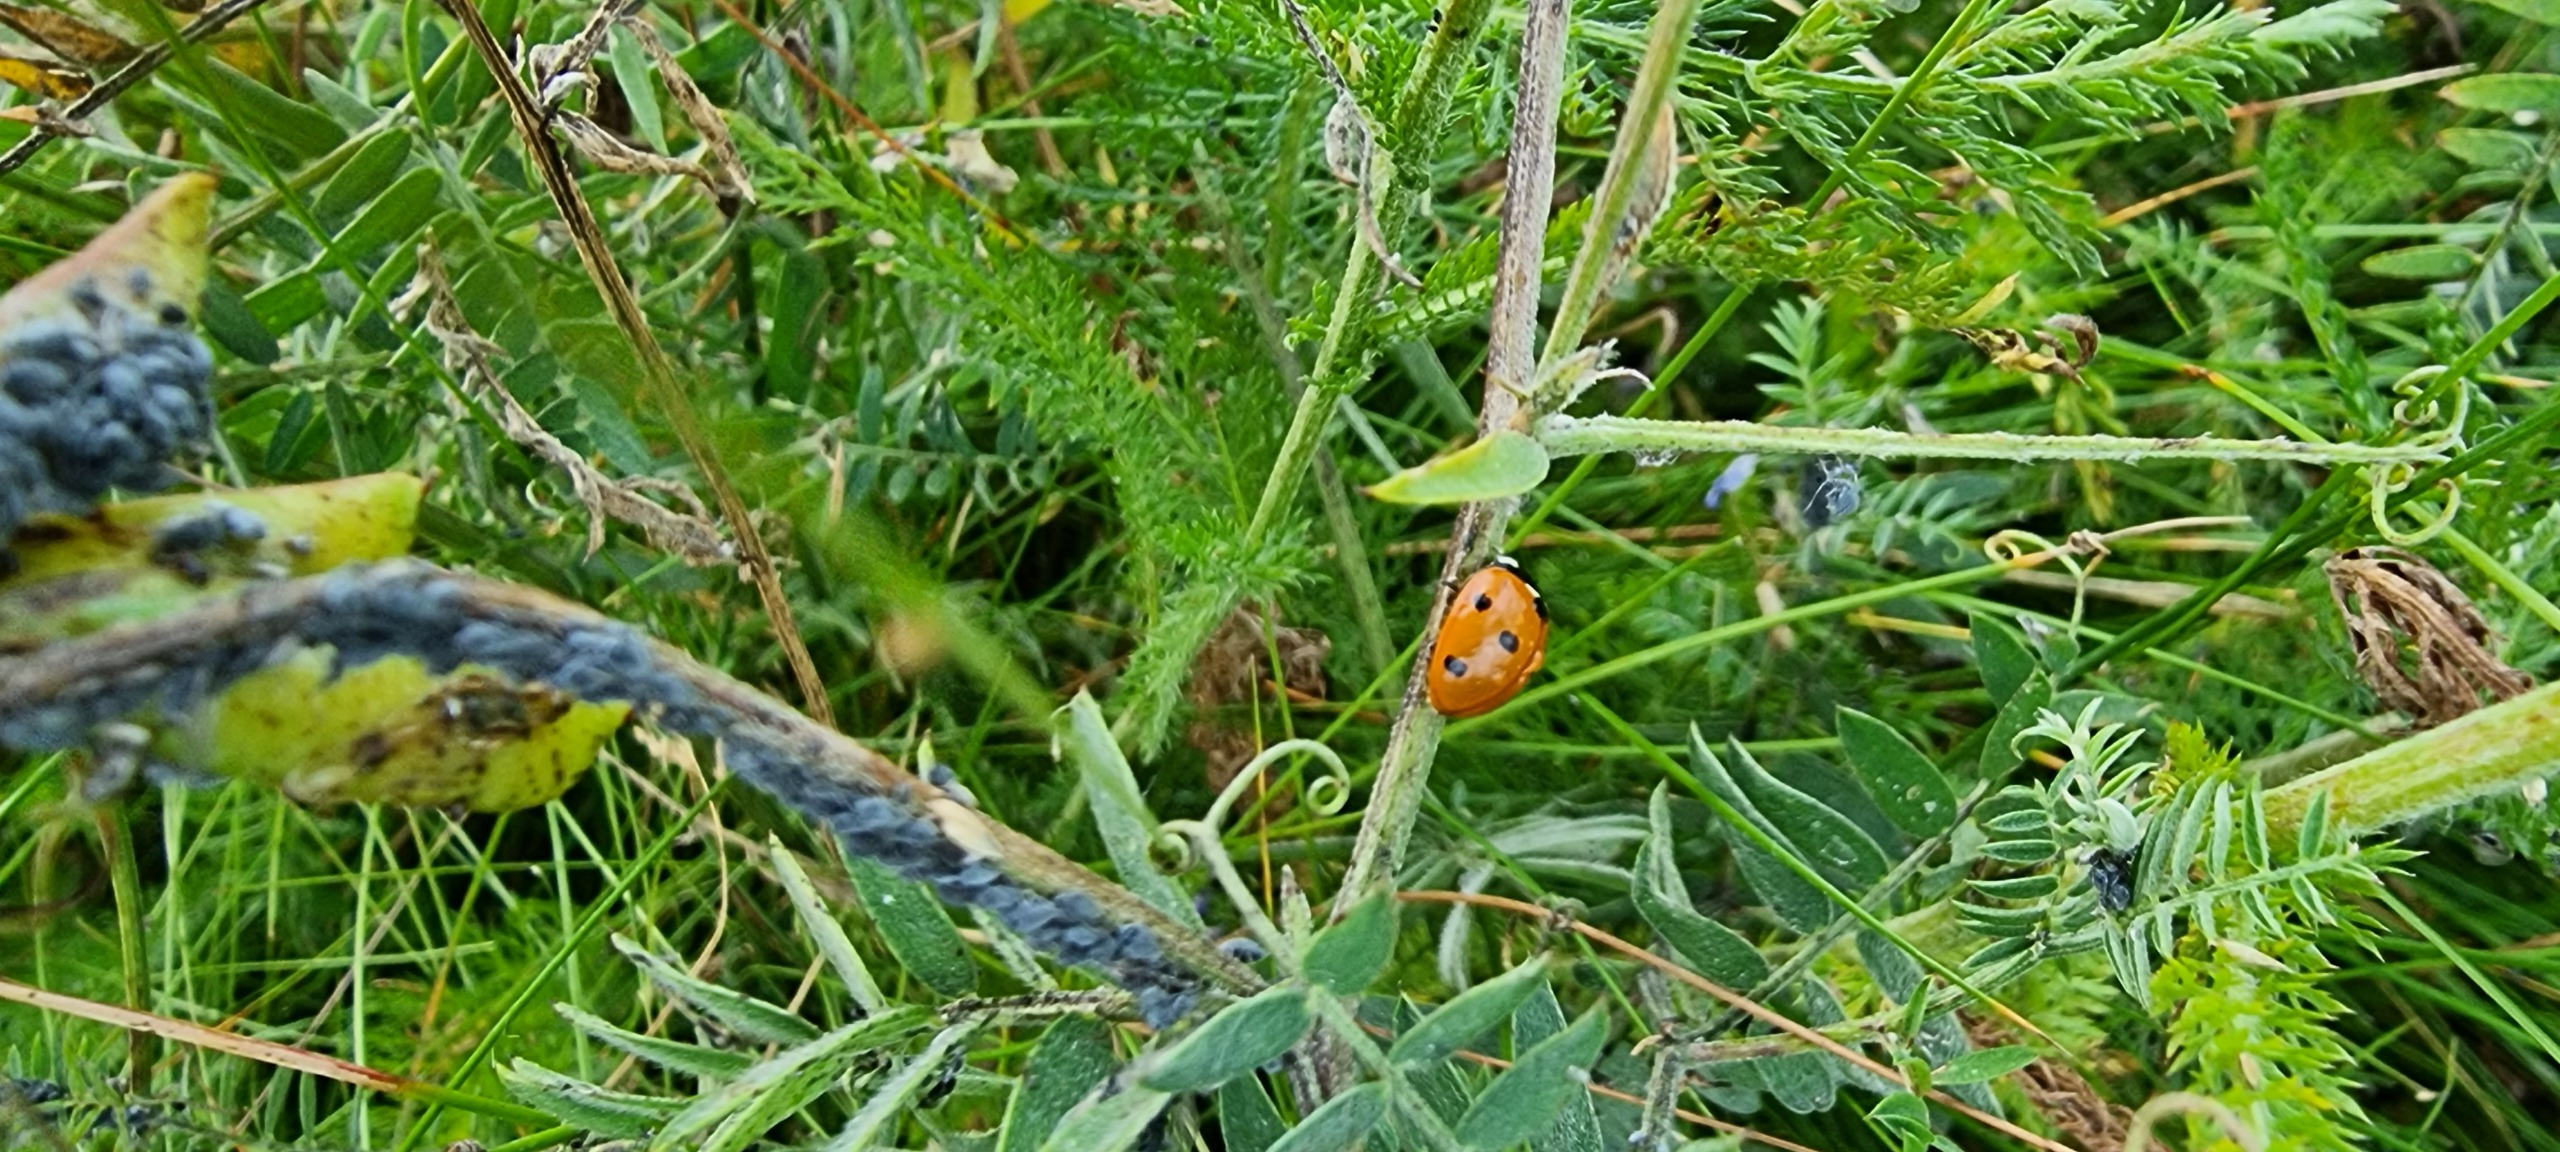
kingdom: Animalia
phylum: Arthropoda
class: Insecta
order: Coleoptera
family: Coccinellidae
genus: Coccinella
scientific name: Coccinella septempunctata
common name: Syvplettet mariehøne
